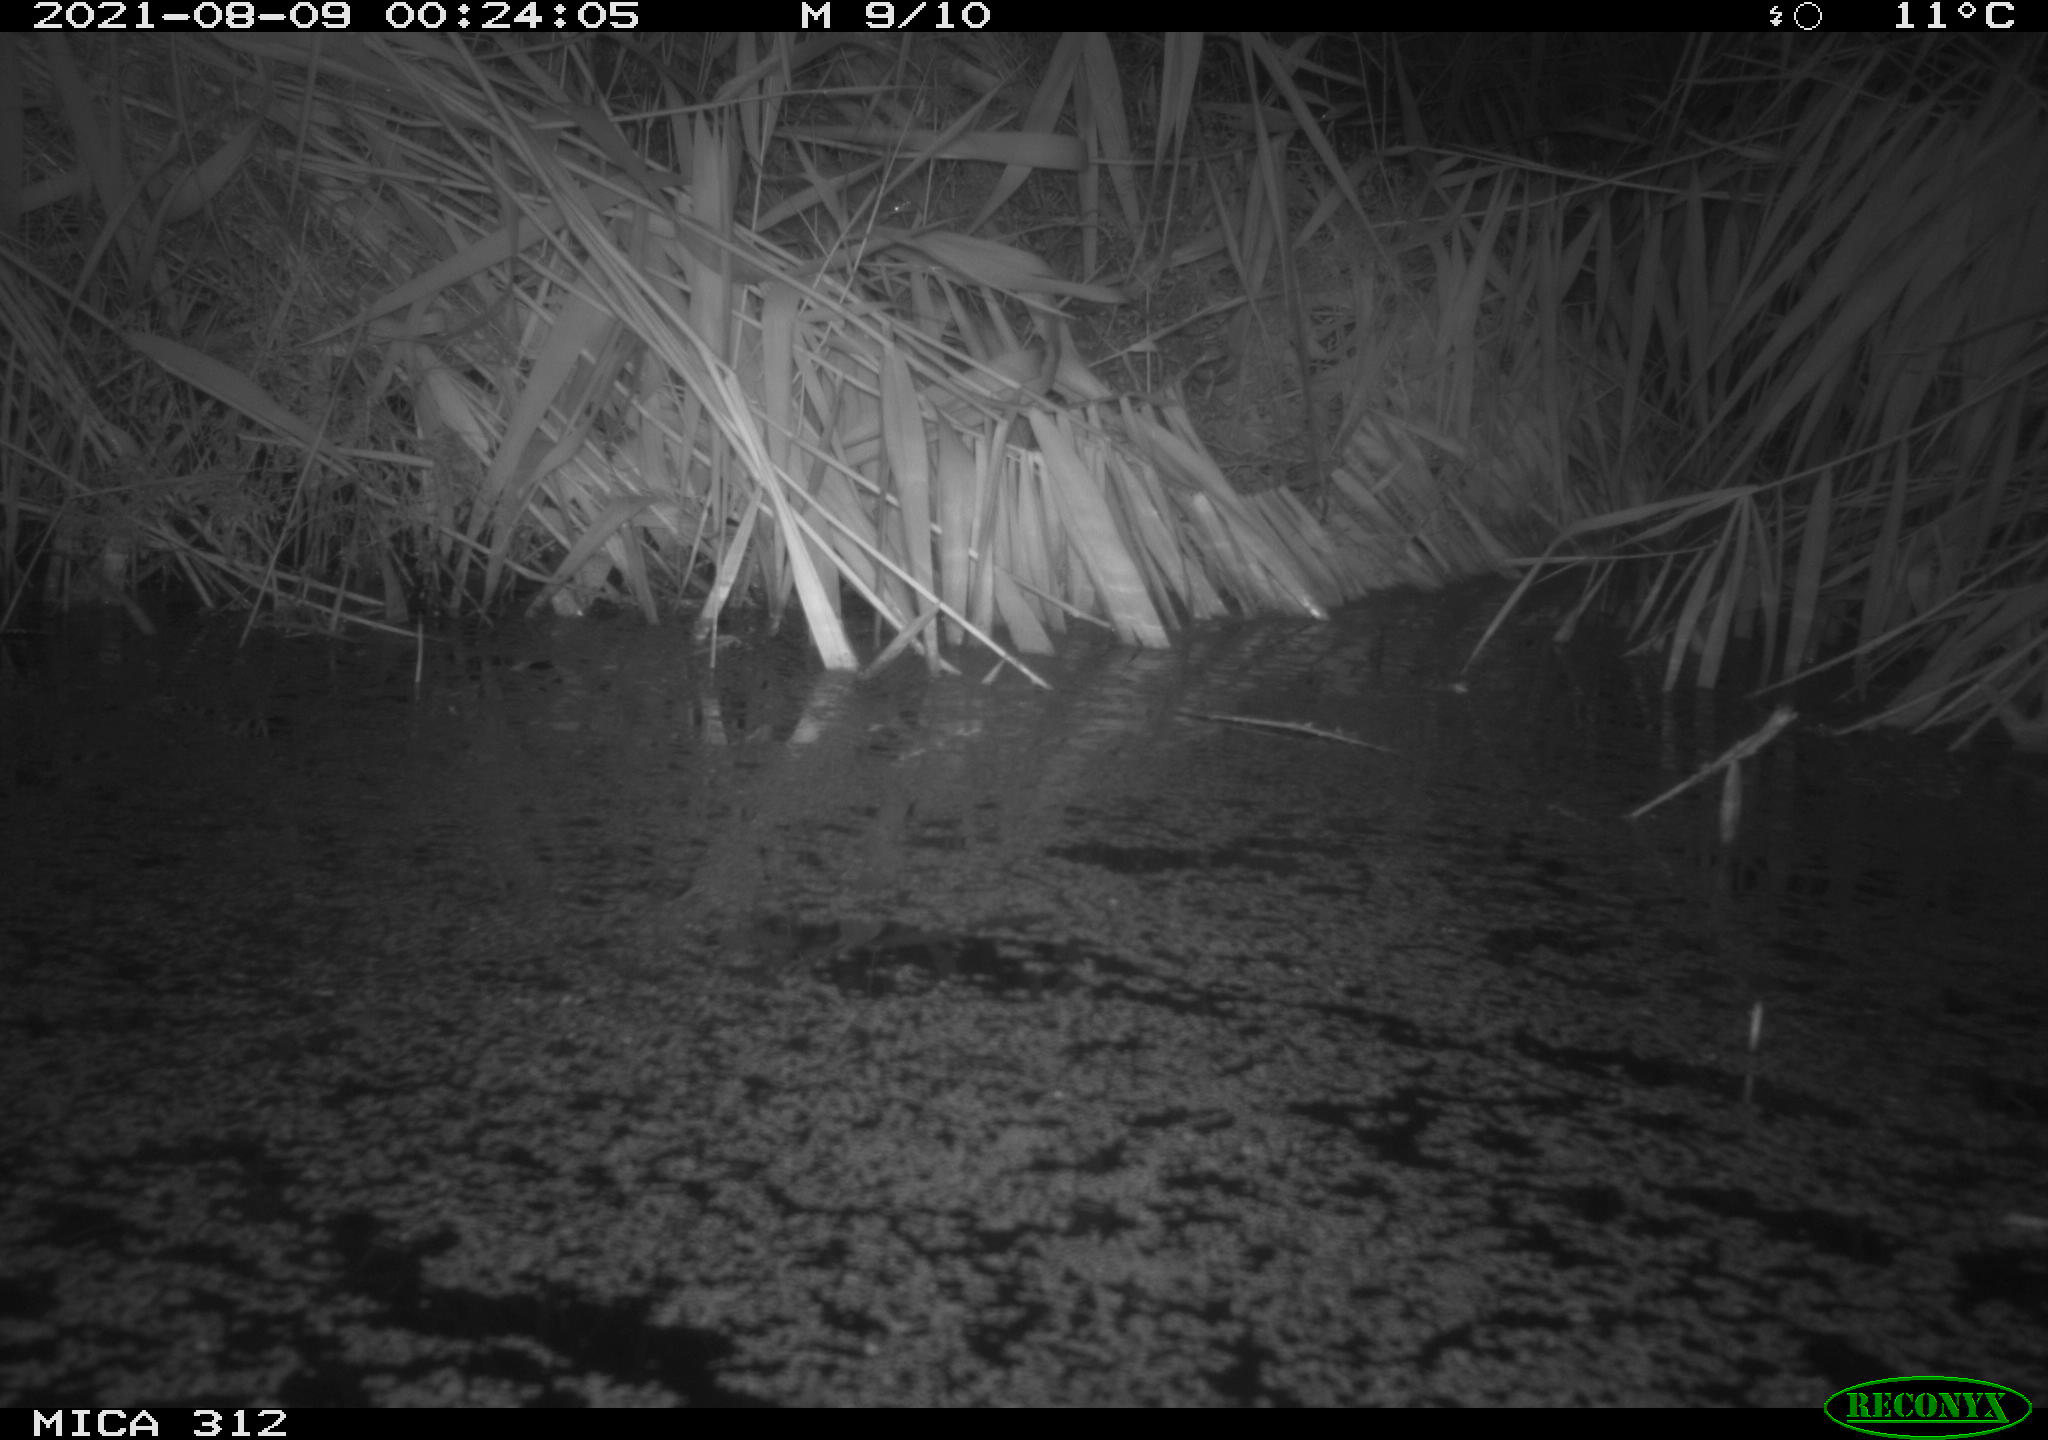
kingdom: Animalia
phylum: Chordata
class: Mammalia
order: Rodentia
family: Muridae
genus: Rattus
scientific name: Rattus norvegicus
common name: Brown rat
